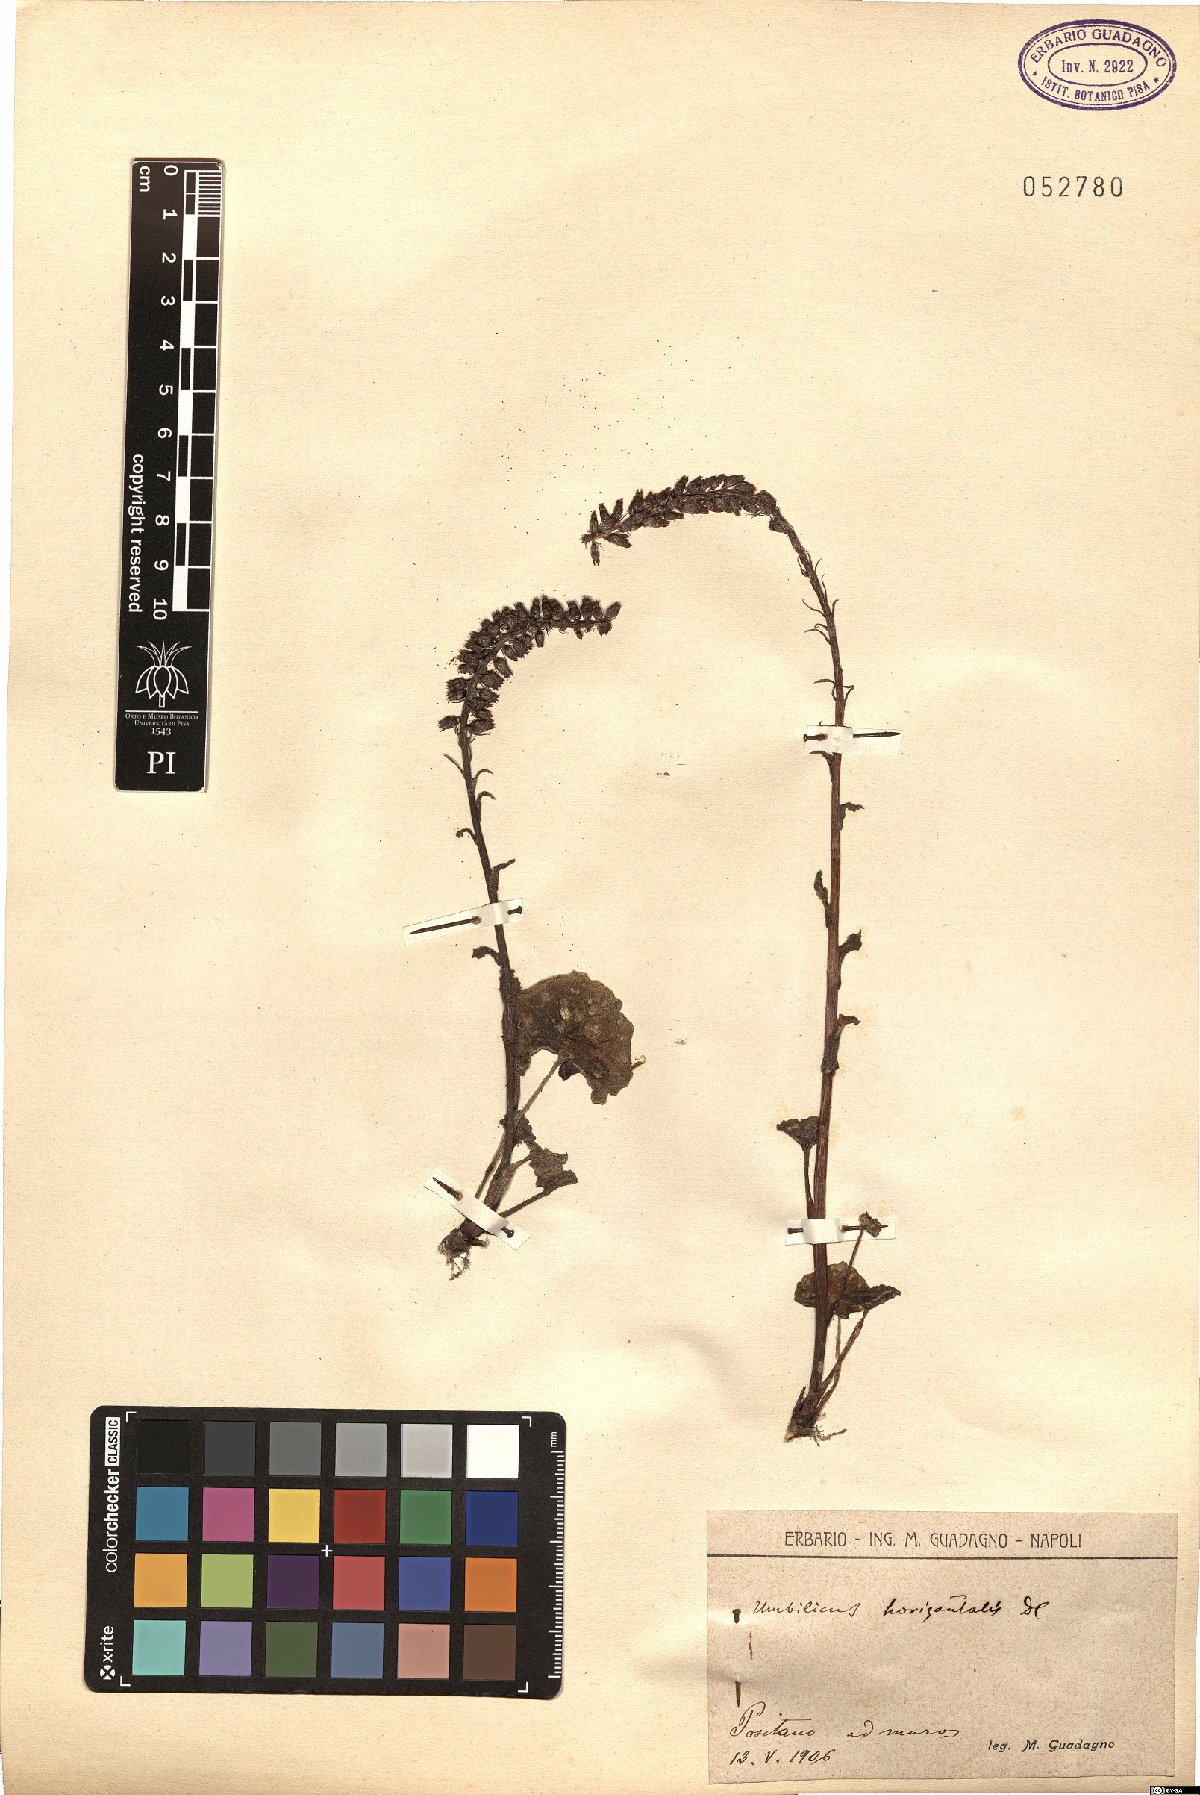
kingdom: Plantae
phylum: Tracheophyta
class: Magnoliopsida
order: Saxifragales
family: Crassulaceae
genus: Umbilicus
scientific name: Umbilicus horizontalis
